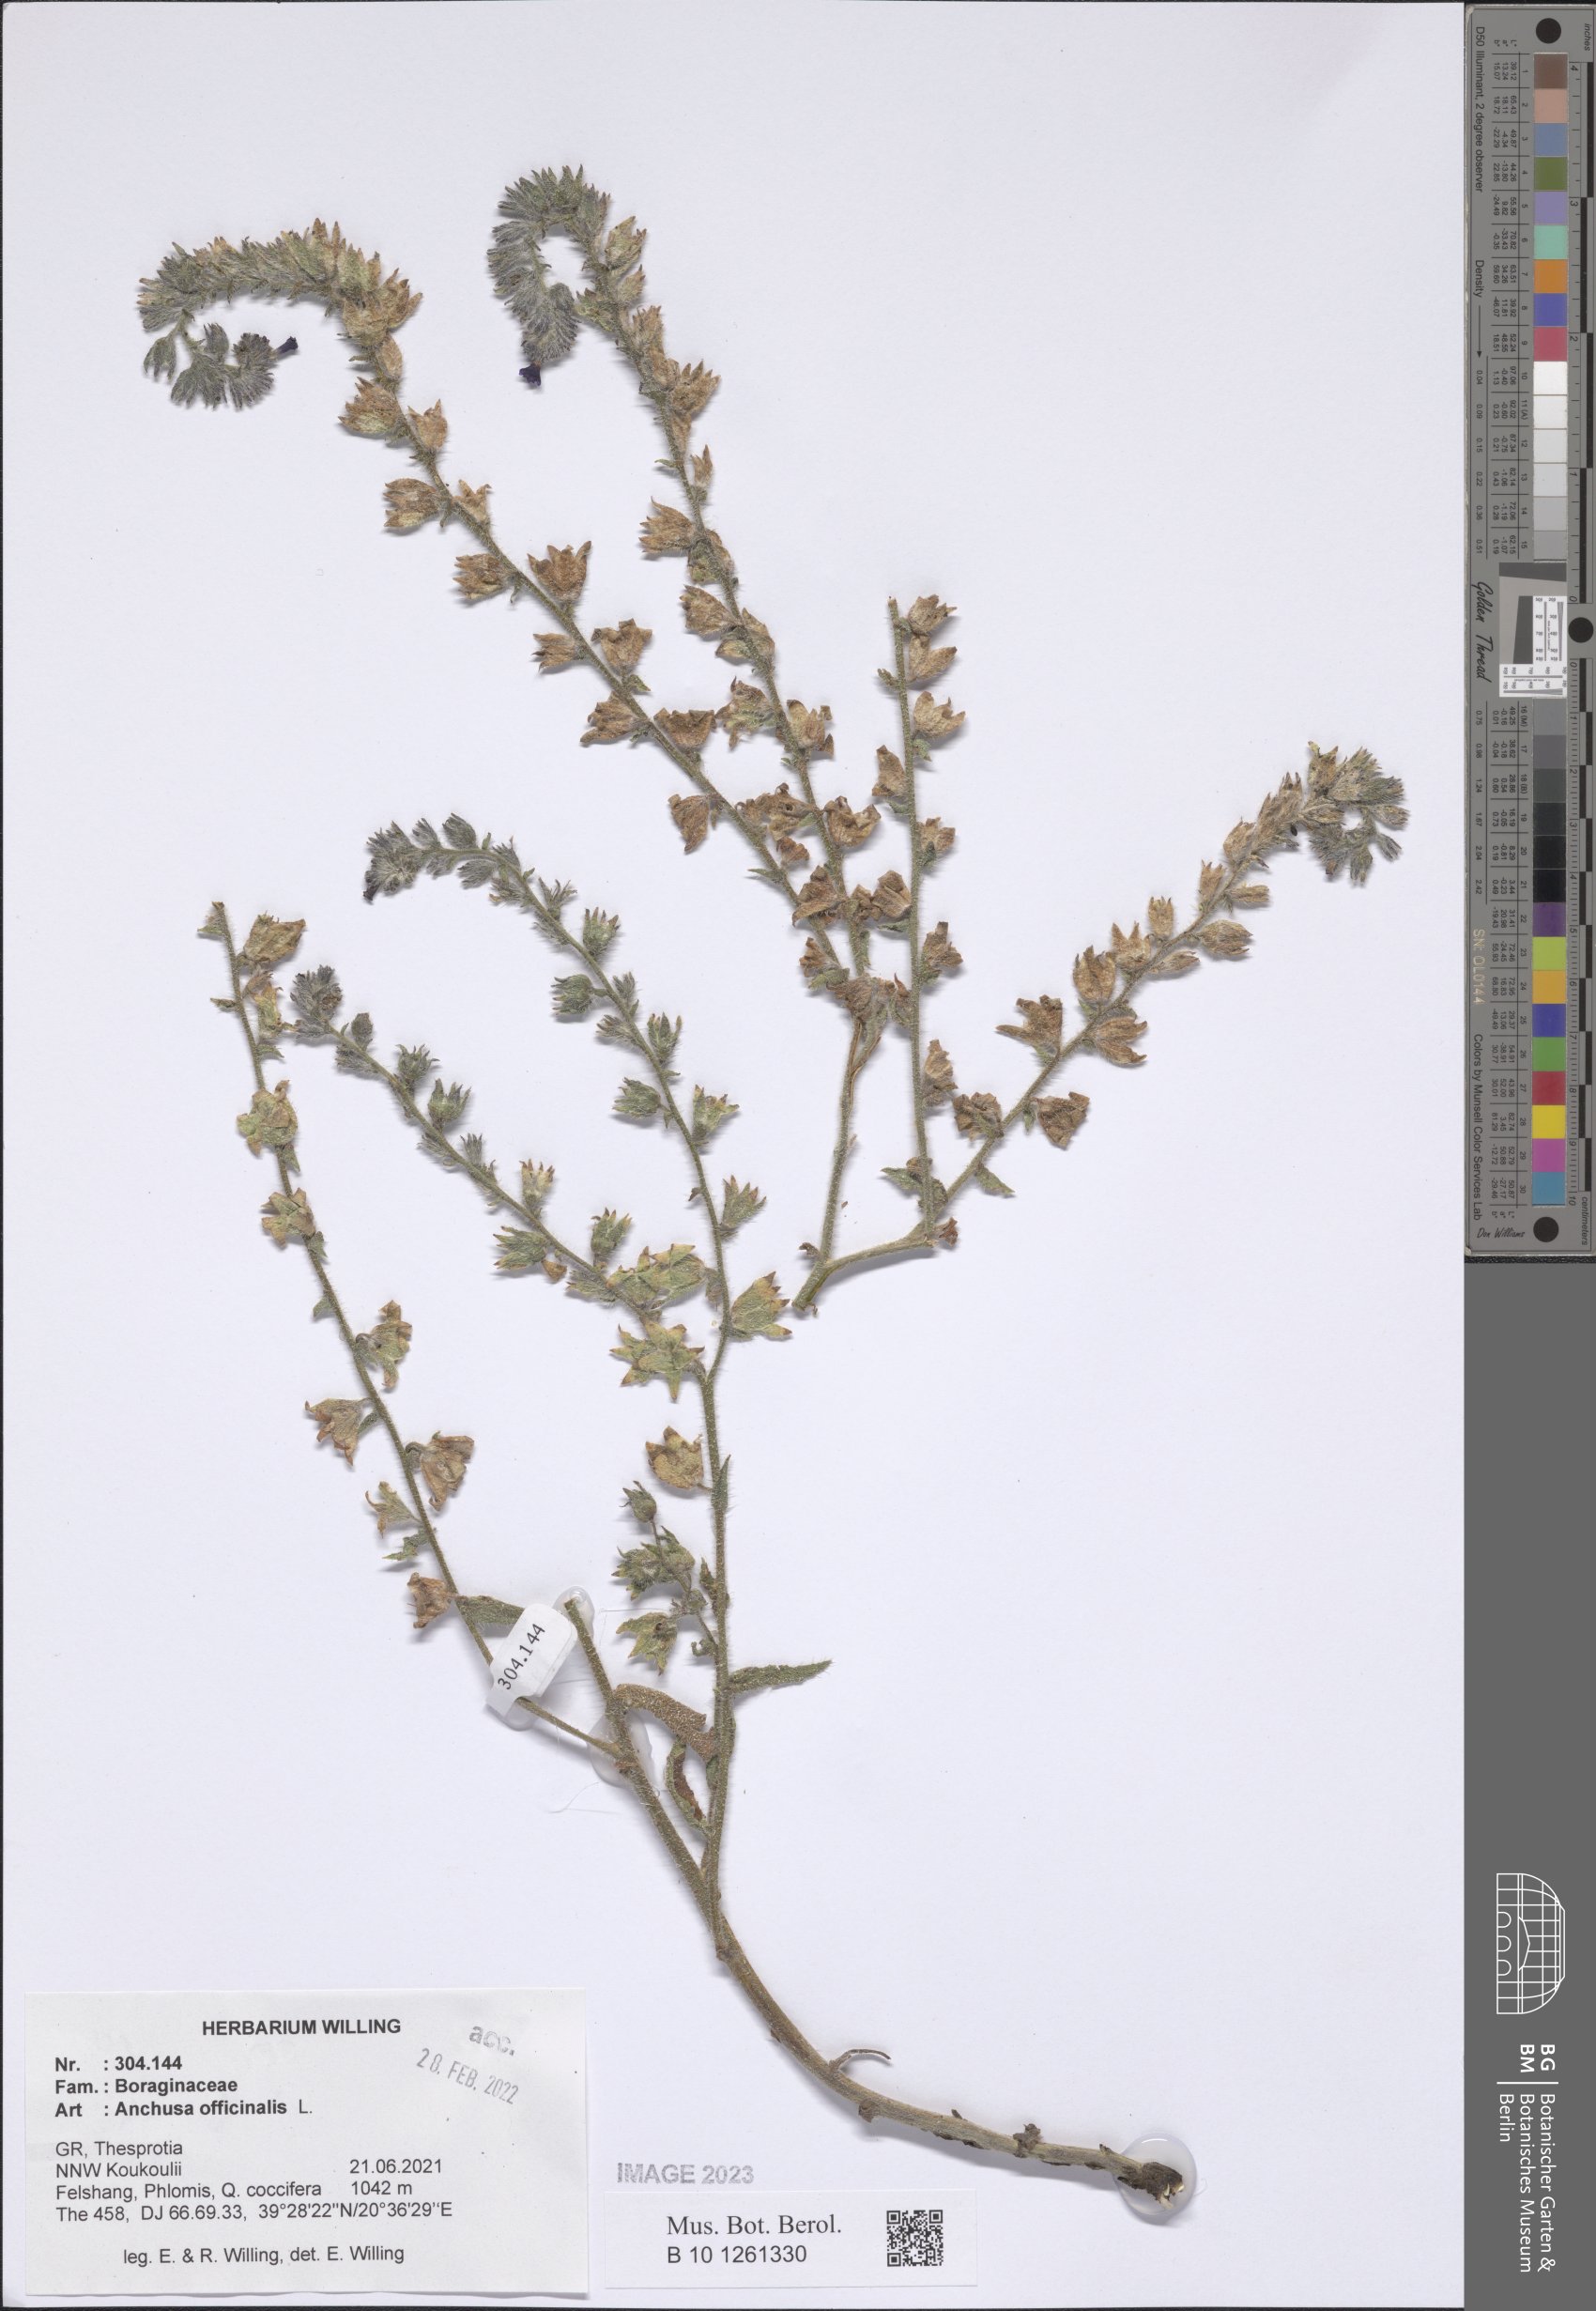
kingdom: Plantae
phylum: Tracheophyta
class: Magnoliopsida
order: Boraginales
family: Boraginaceae
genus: Anchusa
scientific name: Anchusa officinalis
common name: Alkanet
